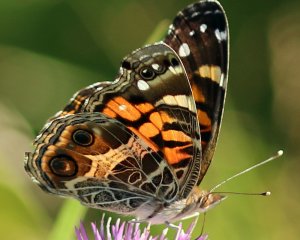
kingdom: Animalia
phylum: Arthropoda
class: Insecta
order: Lepidoptera
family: Nymphalidae
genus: Vanessa
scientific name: Vanessa virginiensis
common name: American Lady
